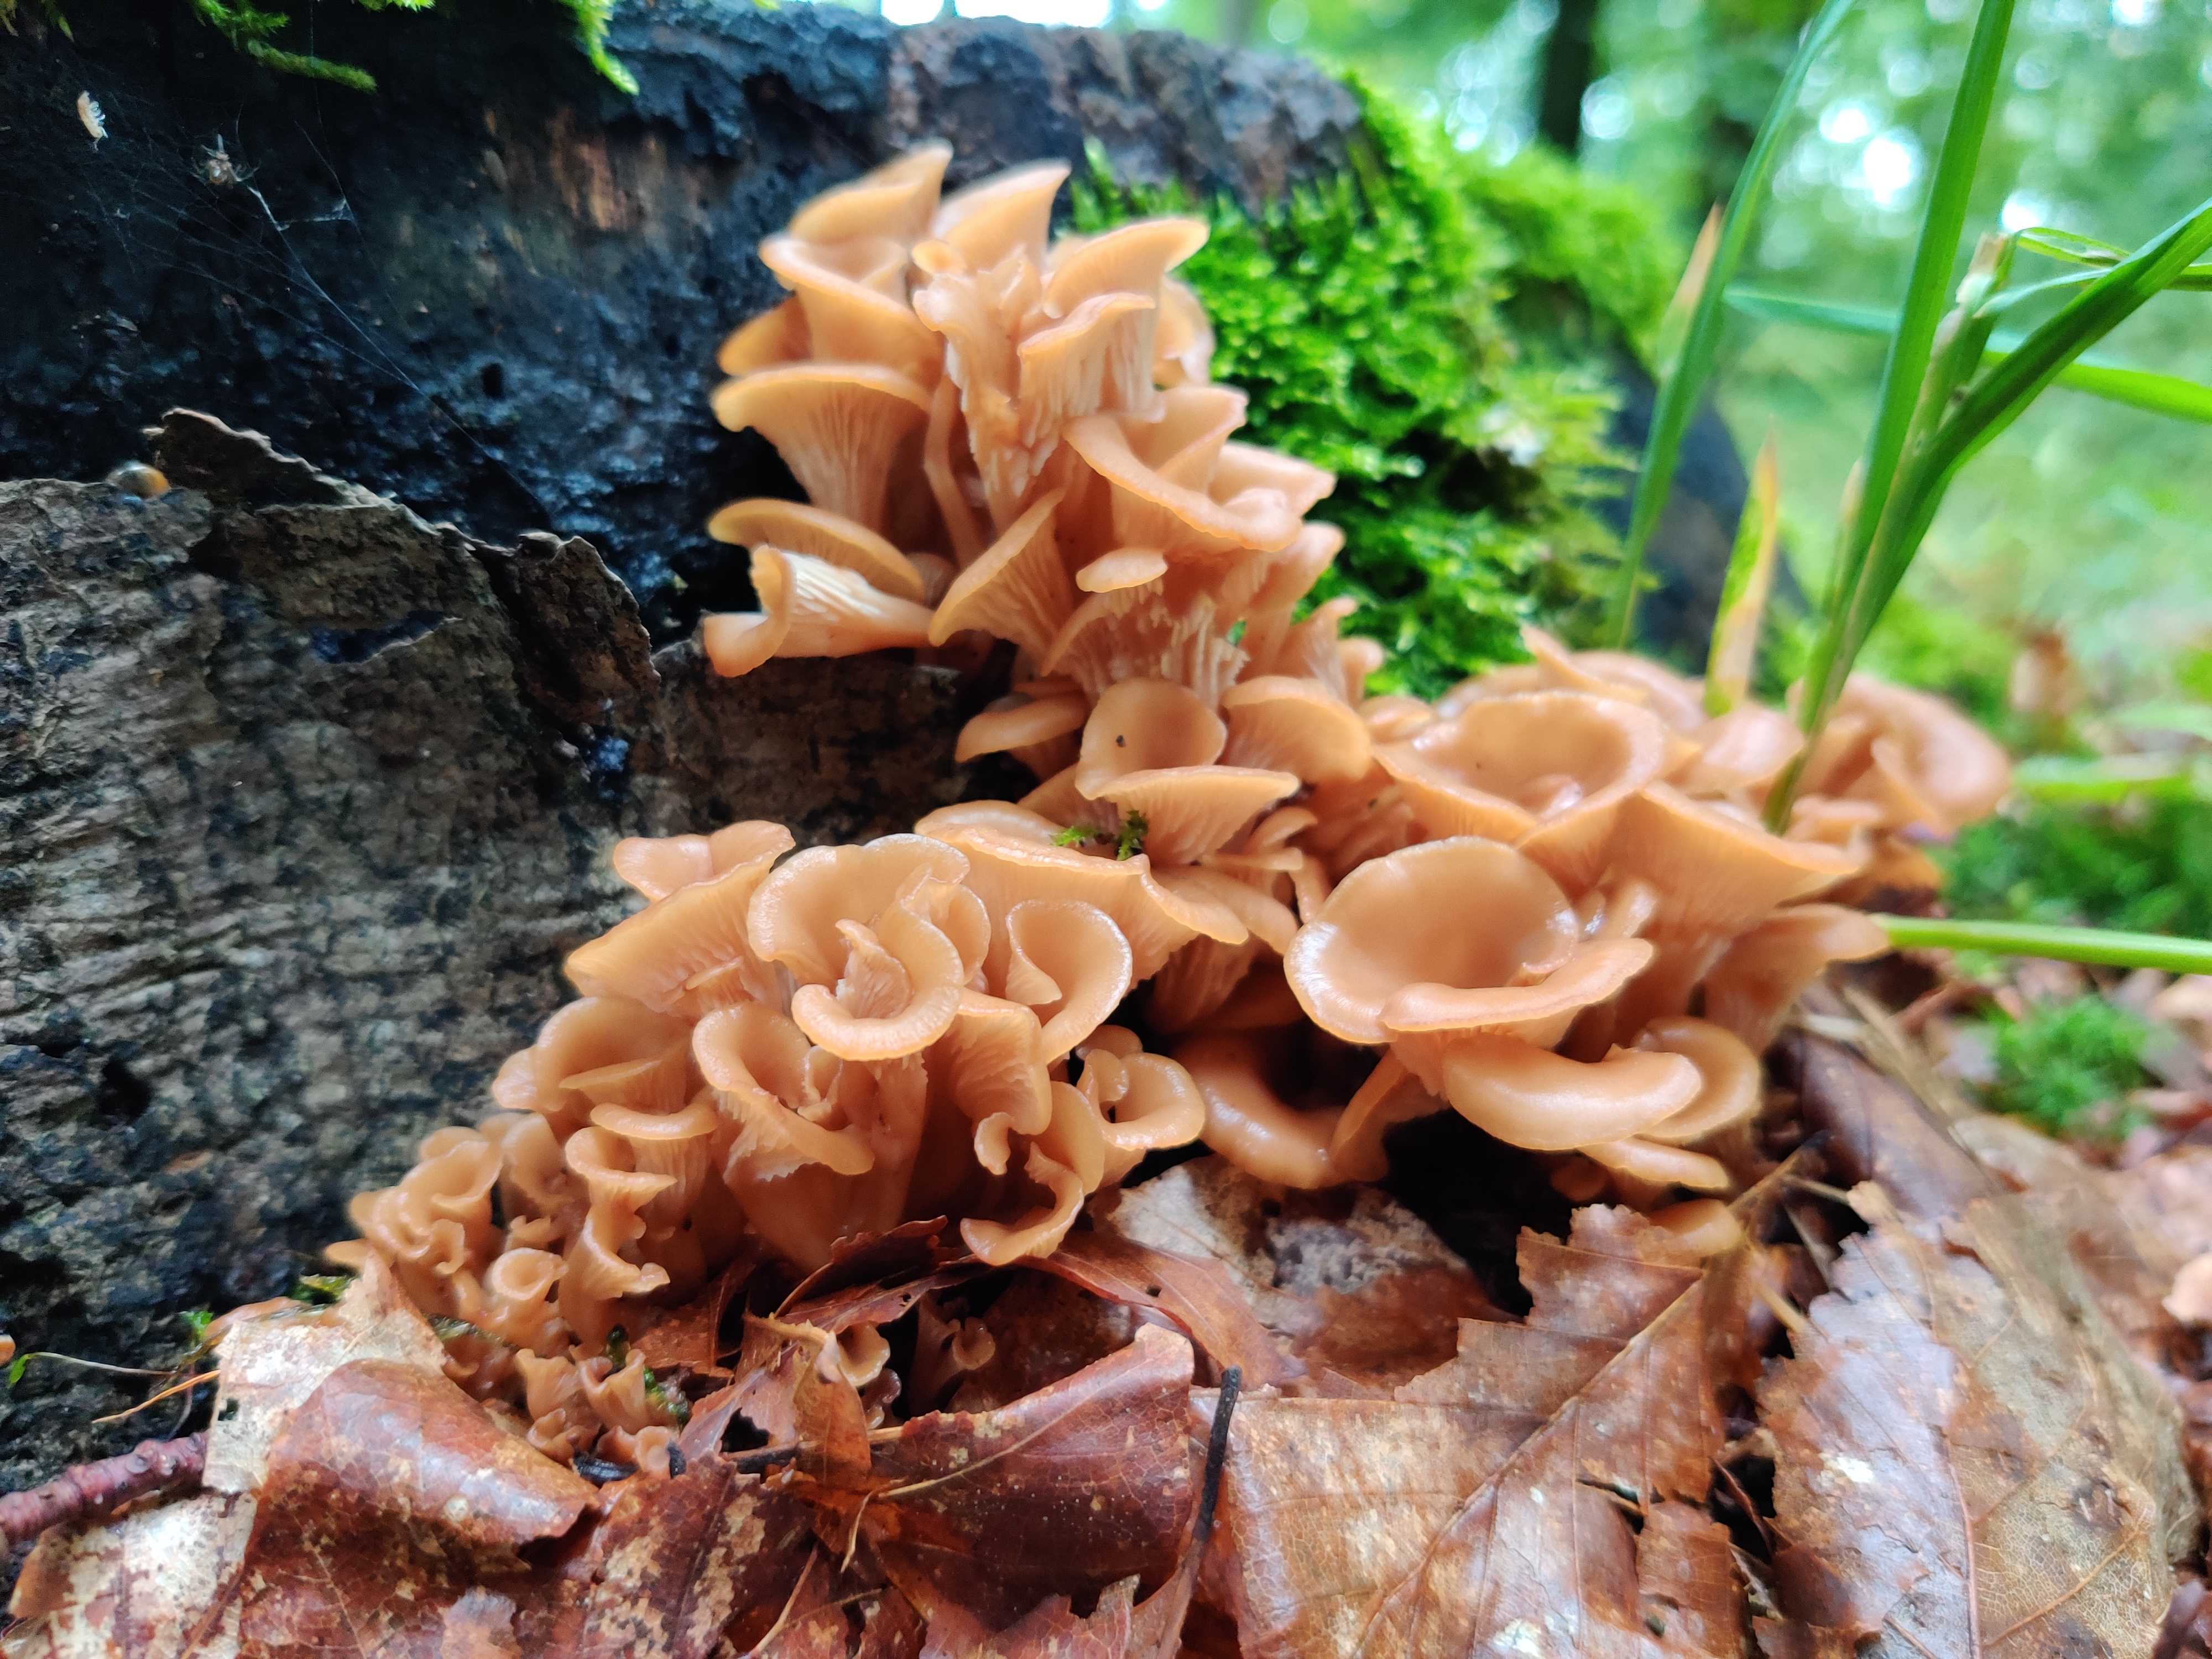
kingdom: Fungi
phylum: Basidiomycota
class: Agaricomycetes
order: Russulales
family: Auriscalpiaceae
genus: Lentinellus
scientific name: Lentinellus cochleatus
